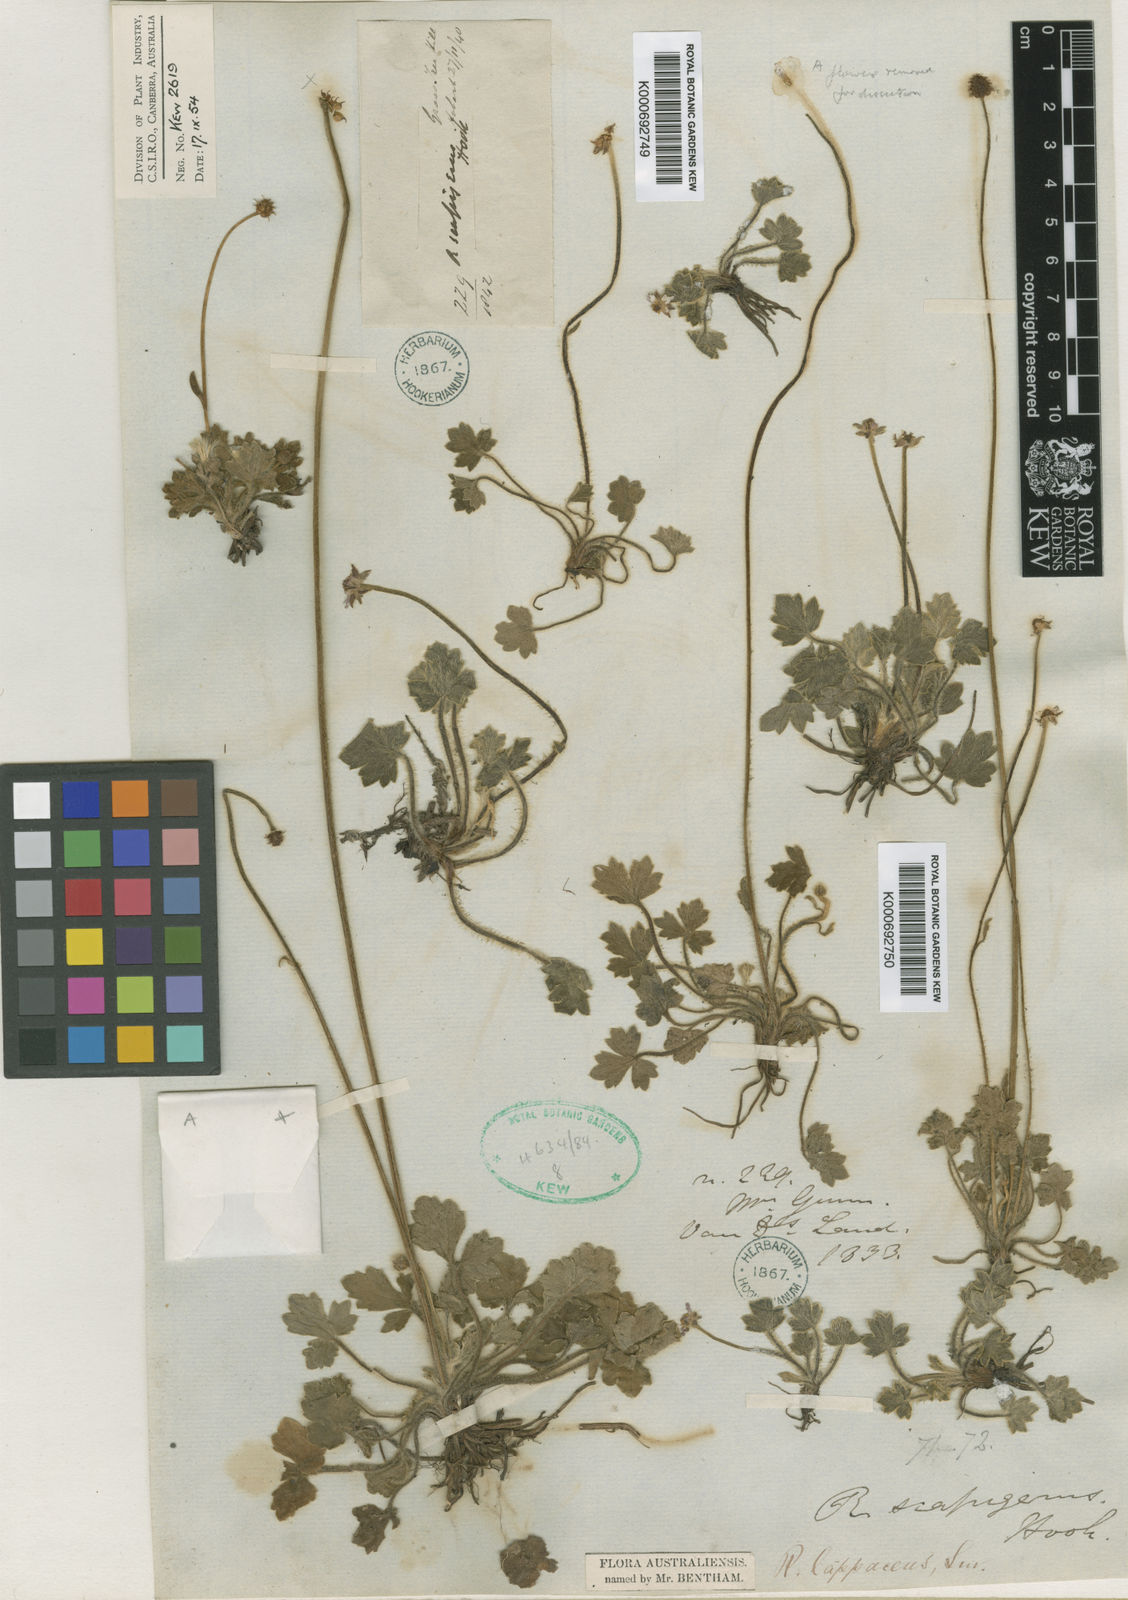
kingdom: Plantae
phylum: Tracheophyta
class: Magnoliopsida
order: Ranunculales
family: Ranunculaceae
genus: Ranunculus
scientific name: Ranunculus
